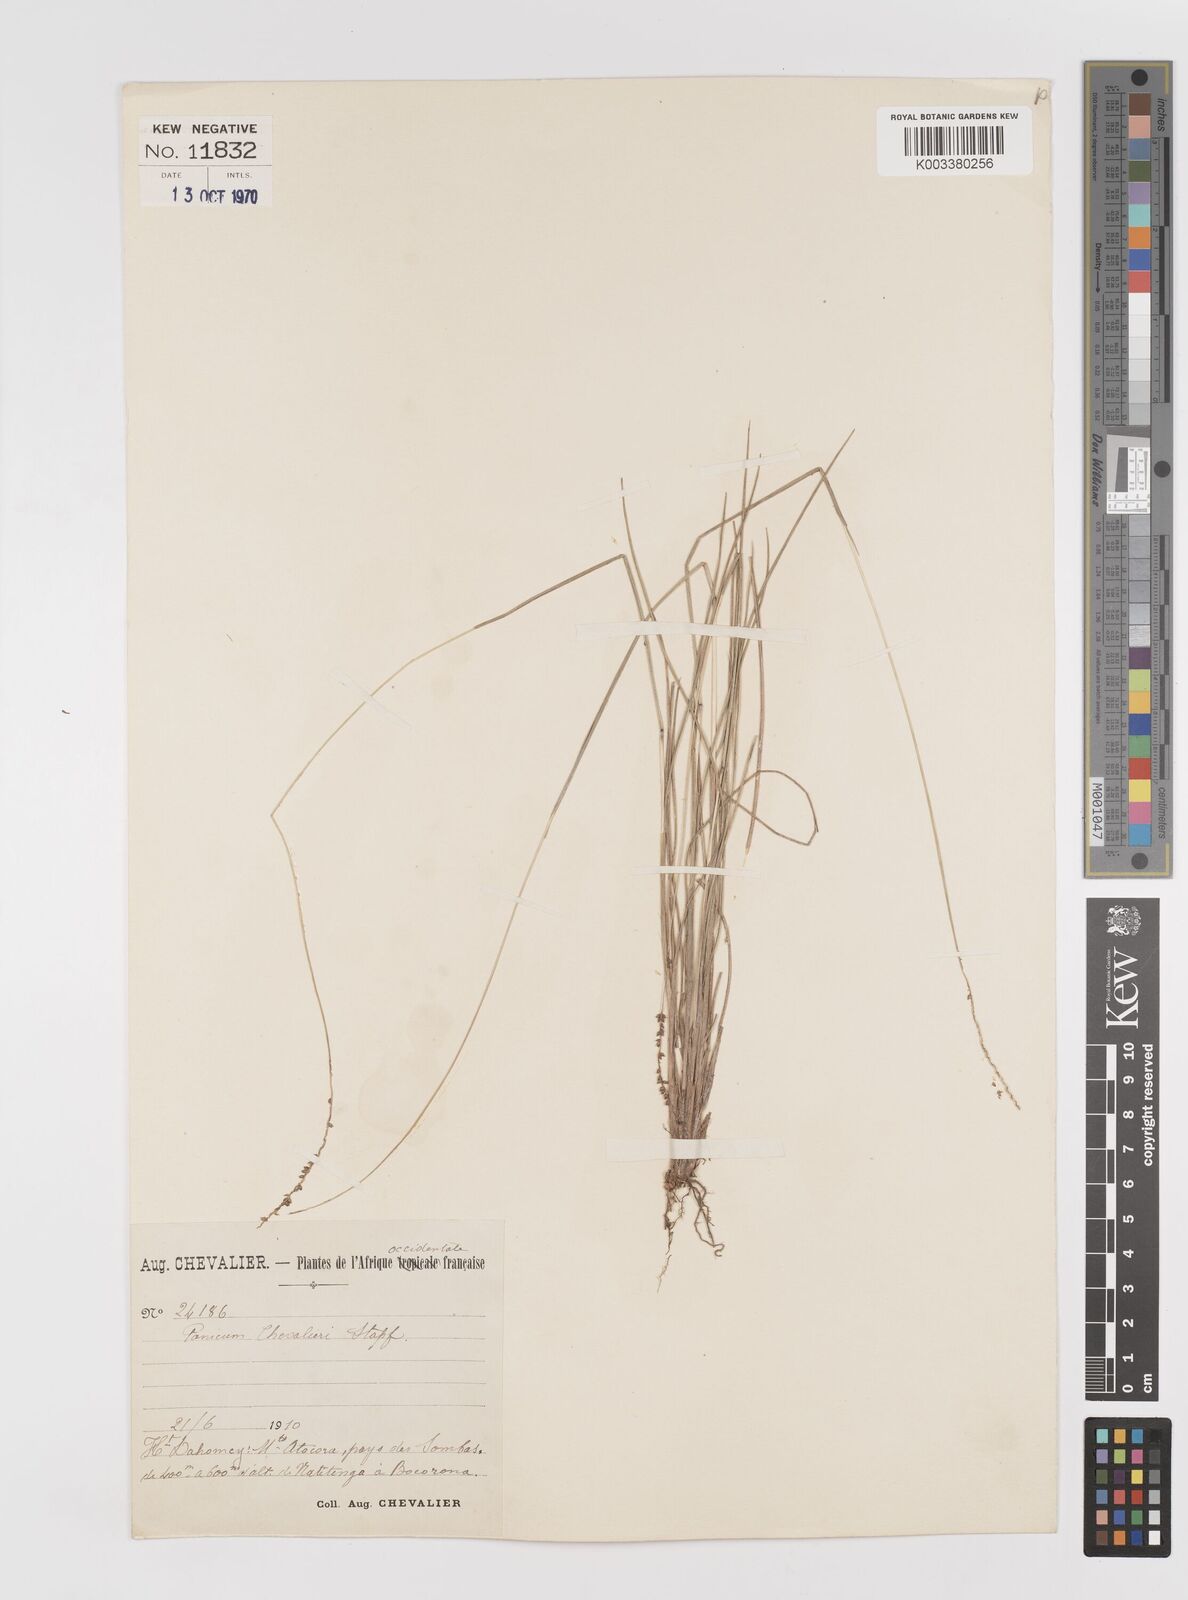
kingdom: Plantae
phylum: Tracheophyta
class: Liliopsida
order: Poales
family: Poaceae
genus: Sacciolepis
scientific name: Sacciolepis chevalieri
